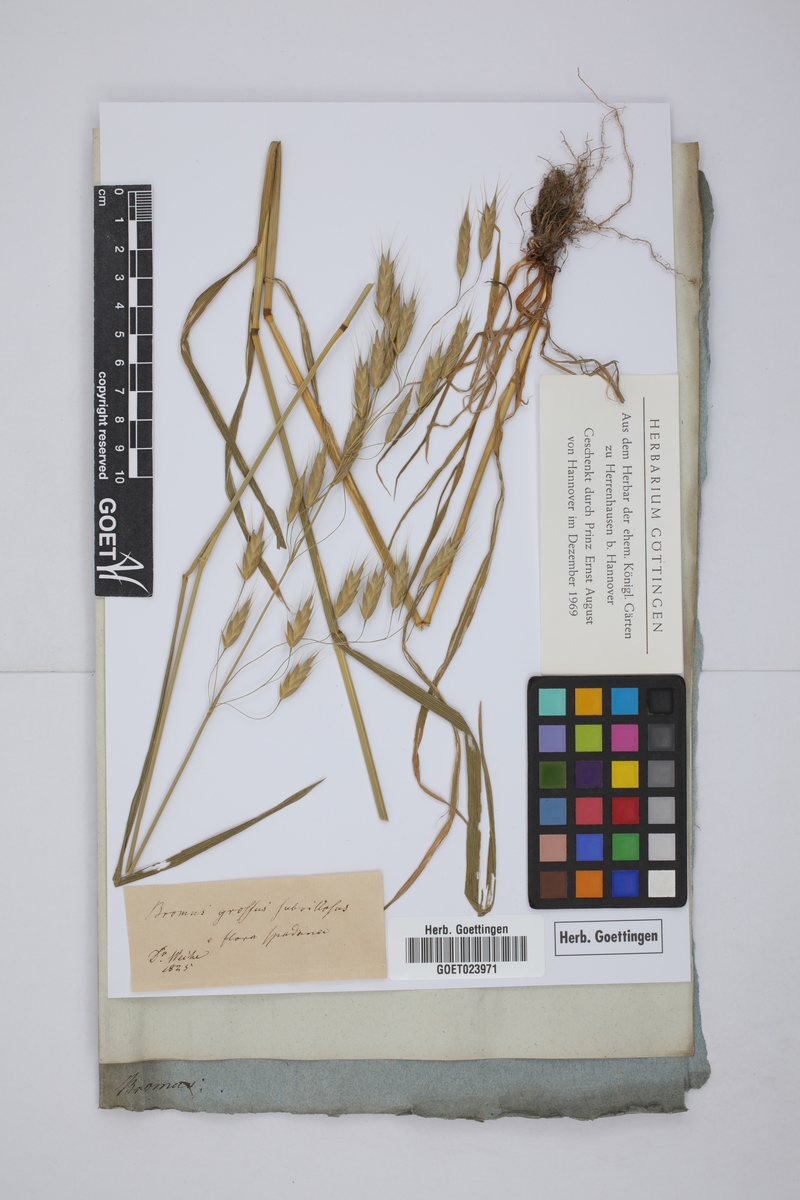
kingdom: Plantae
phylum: Tracheophyta
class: Liliopsida
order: Poales
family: Poaceae
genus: Bromus
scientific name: Bromus grossus
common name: Whiskered brome
